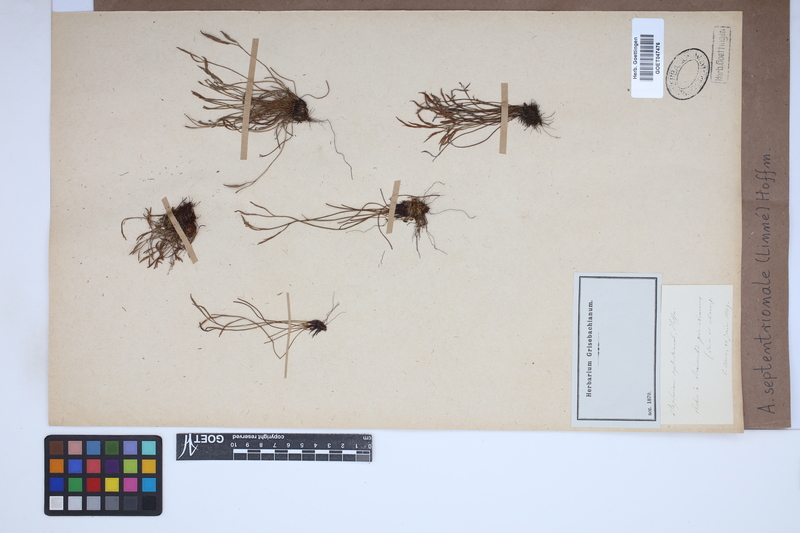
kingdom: Plantae
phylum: Tracheophyta
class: Polypodiopsida
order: Polypodiales
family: Aspleniaceae
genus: Asplenium
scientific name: Asplenium septentrionale
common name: Forked spleenwort
